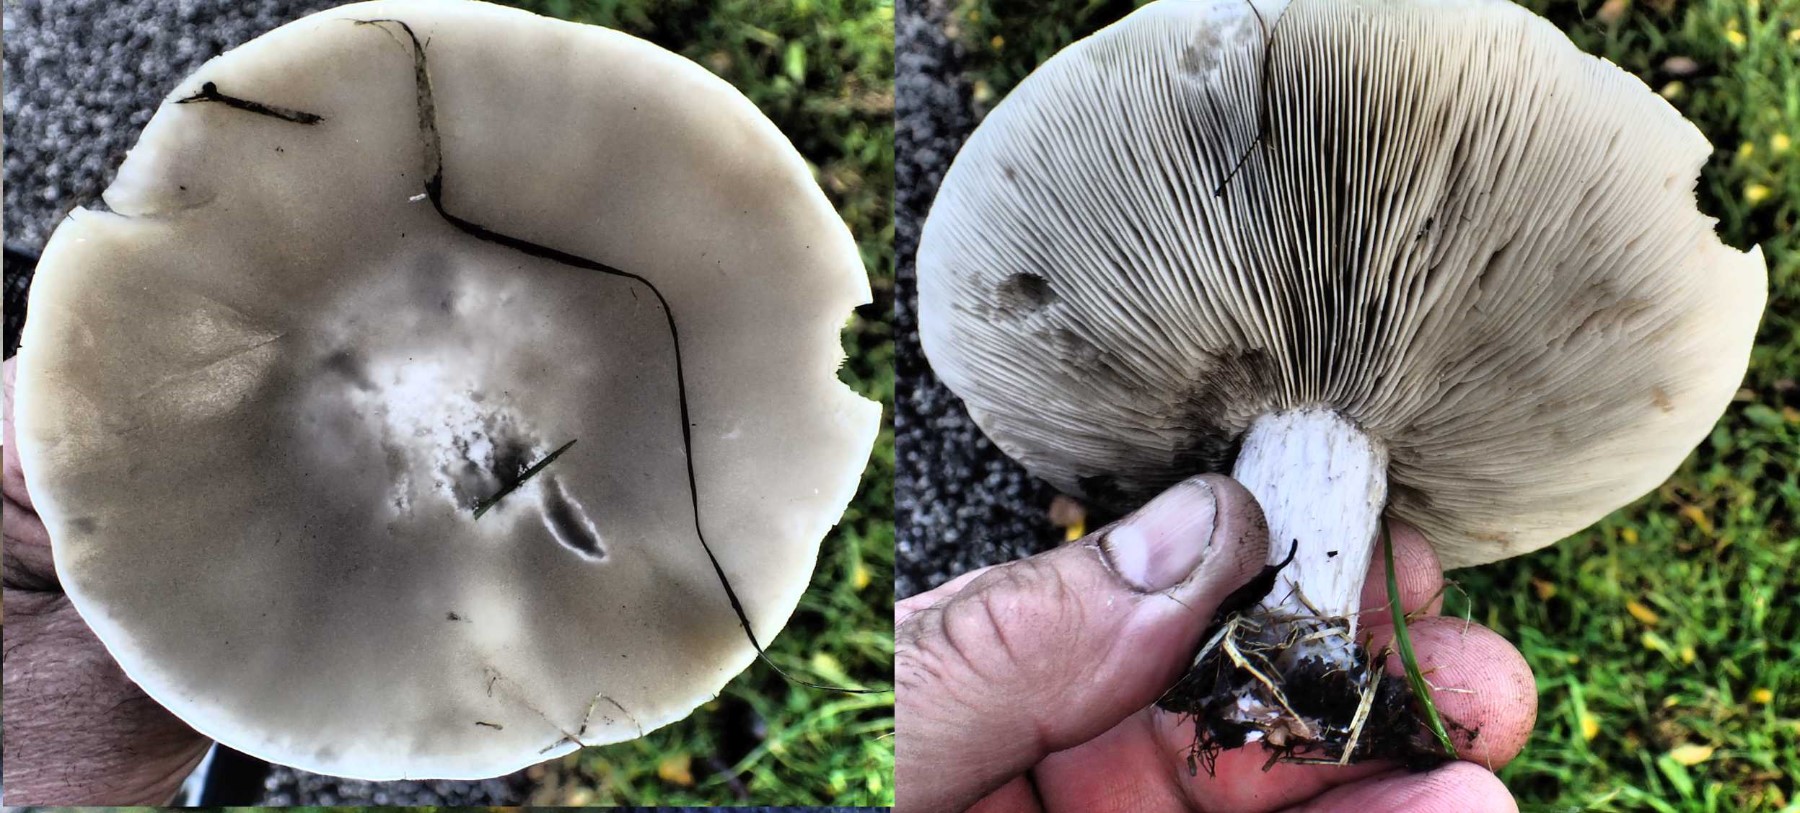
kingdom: Fungi
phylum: Basidiomycota
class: Agaricomycetes
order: Agaricales
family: Tricholomataceae
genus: Lepista
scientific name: Lepista personata
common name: bleg hekseringshat
